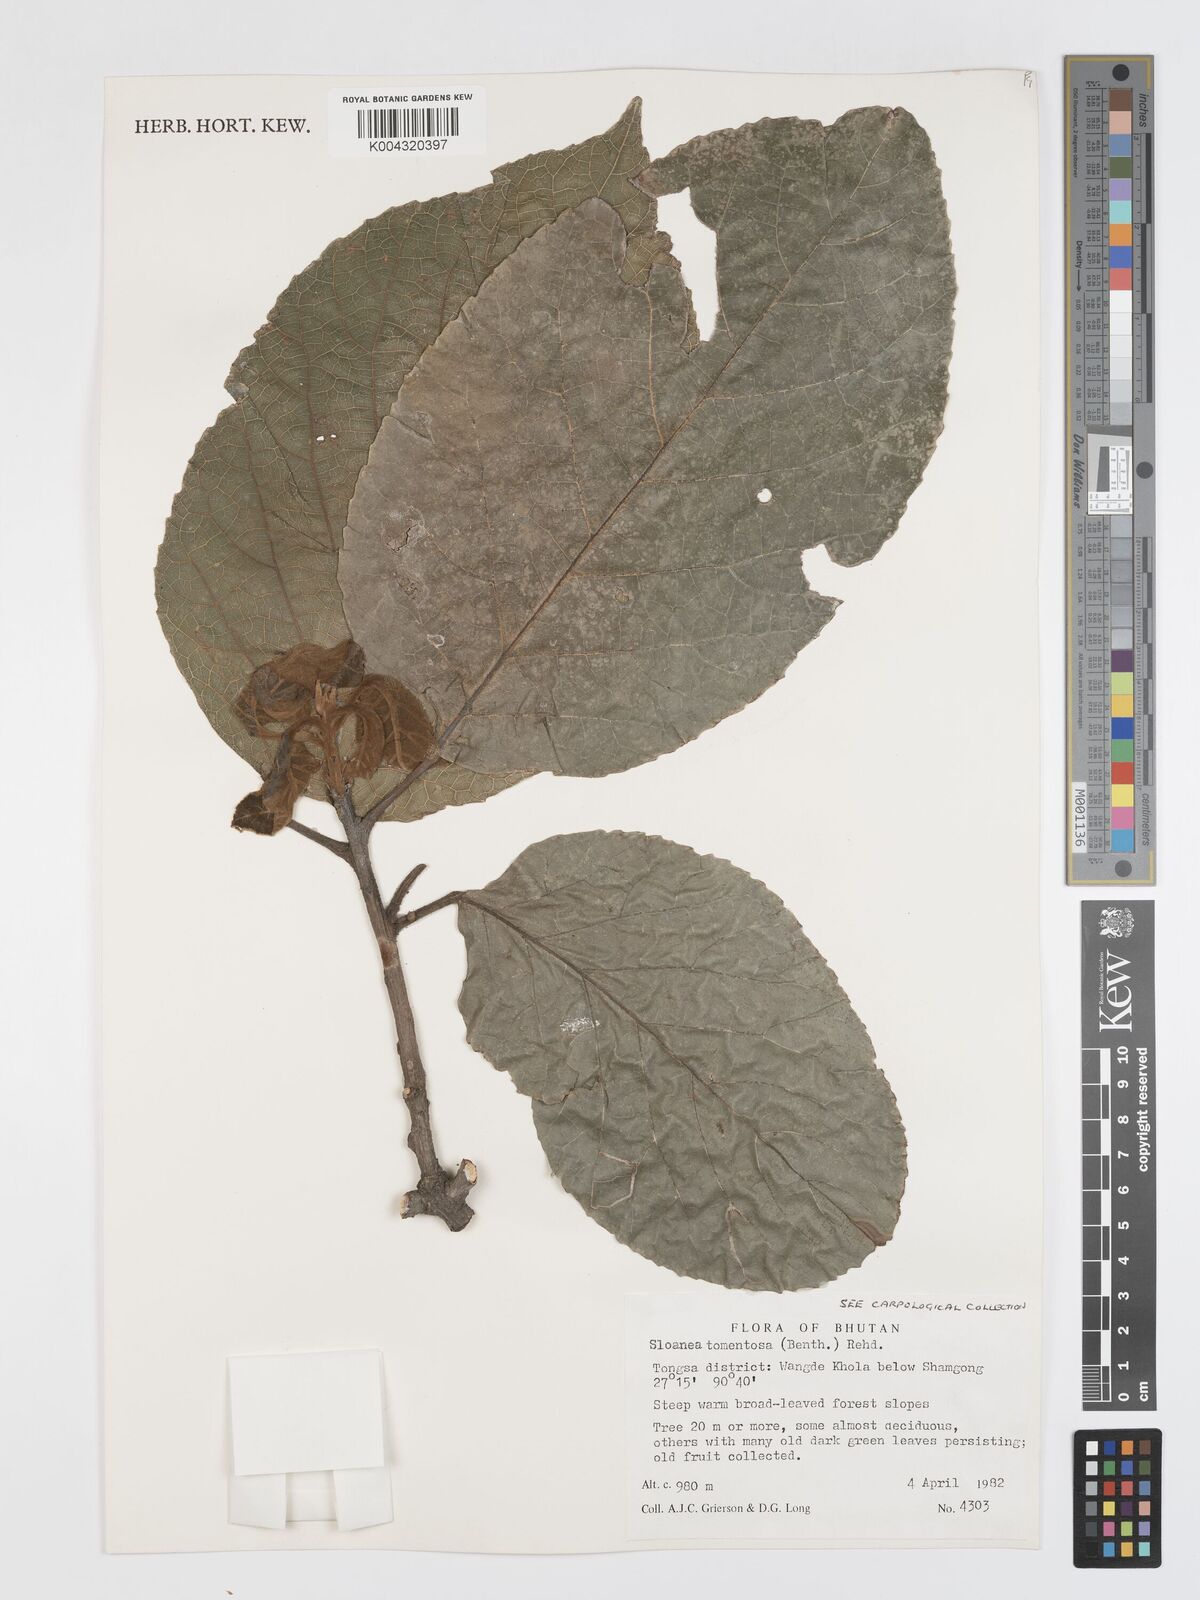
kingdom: Plantae
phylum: Tracheophyta
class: Magnoliopsida
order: Oxalidales
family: Elaeocarpaceae
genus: Sloanea
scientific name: Sloanea tomentosa
